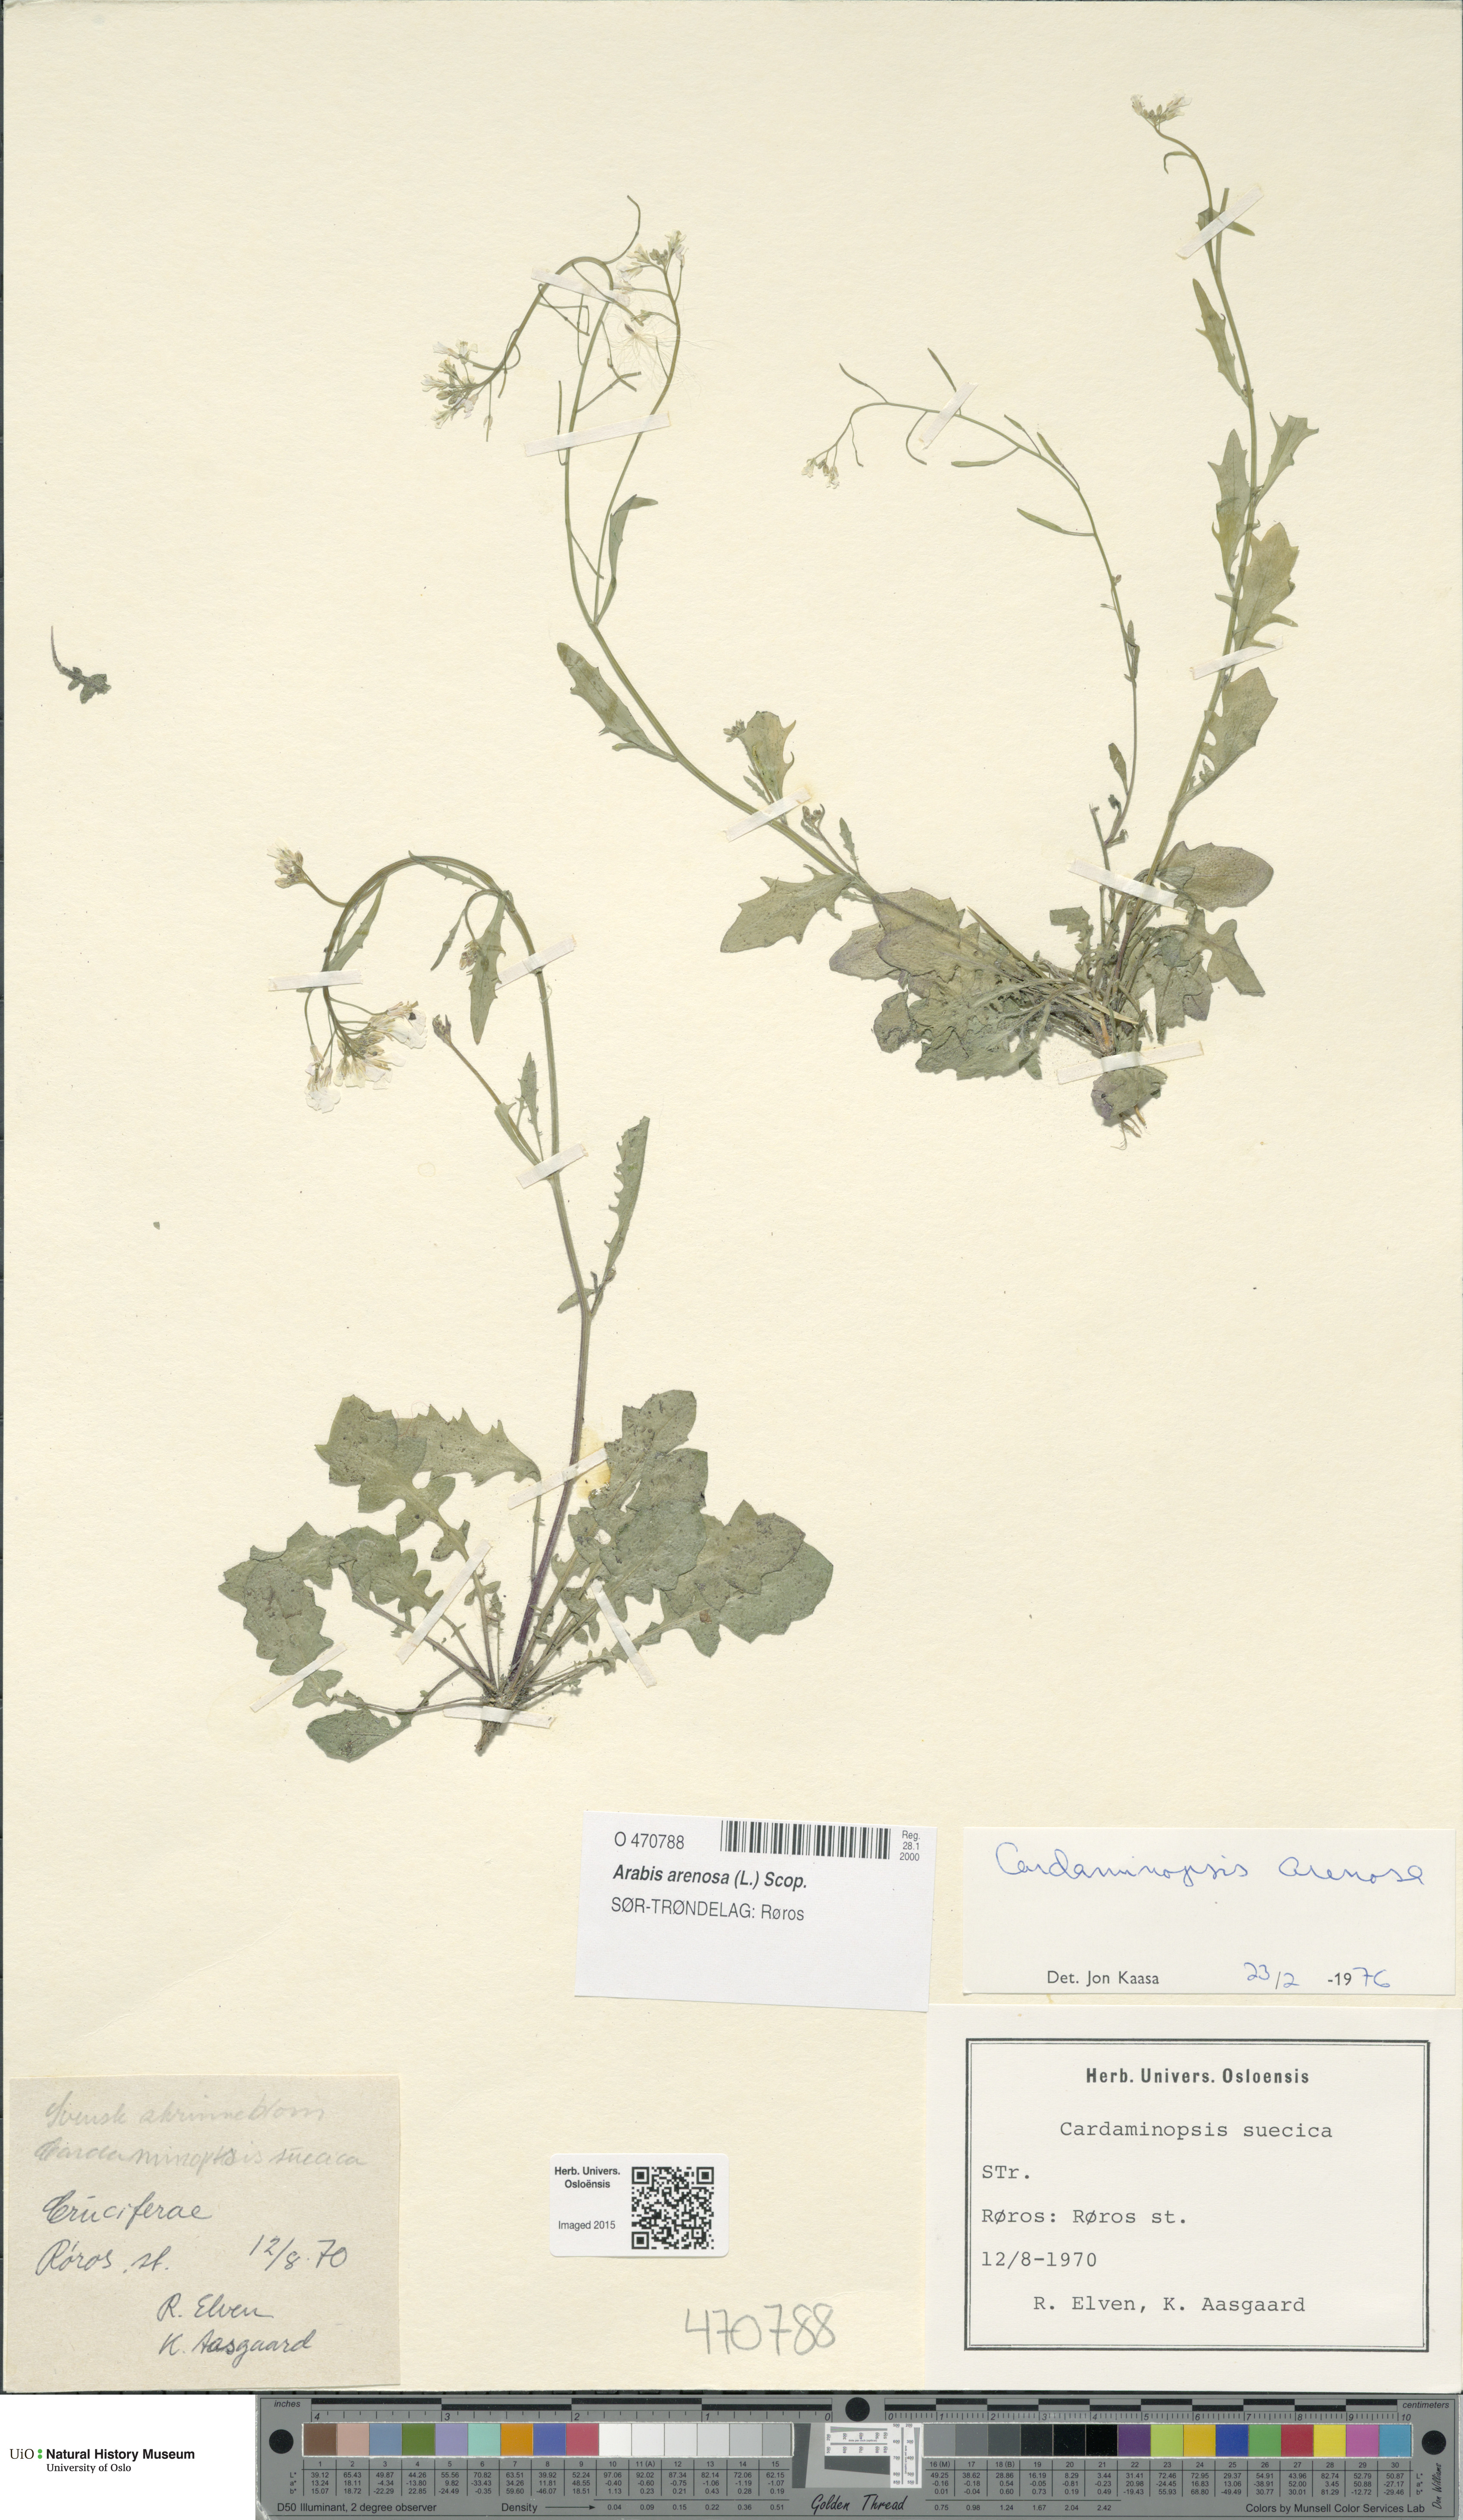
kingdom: Plantae
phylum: Tracheophyta
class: Magnoliopsida
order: Brassicales
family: Brassicaceae
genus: Arabidopsis
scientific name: Arabidopsis arenosa
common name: Sand rock-cress
